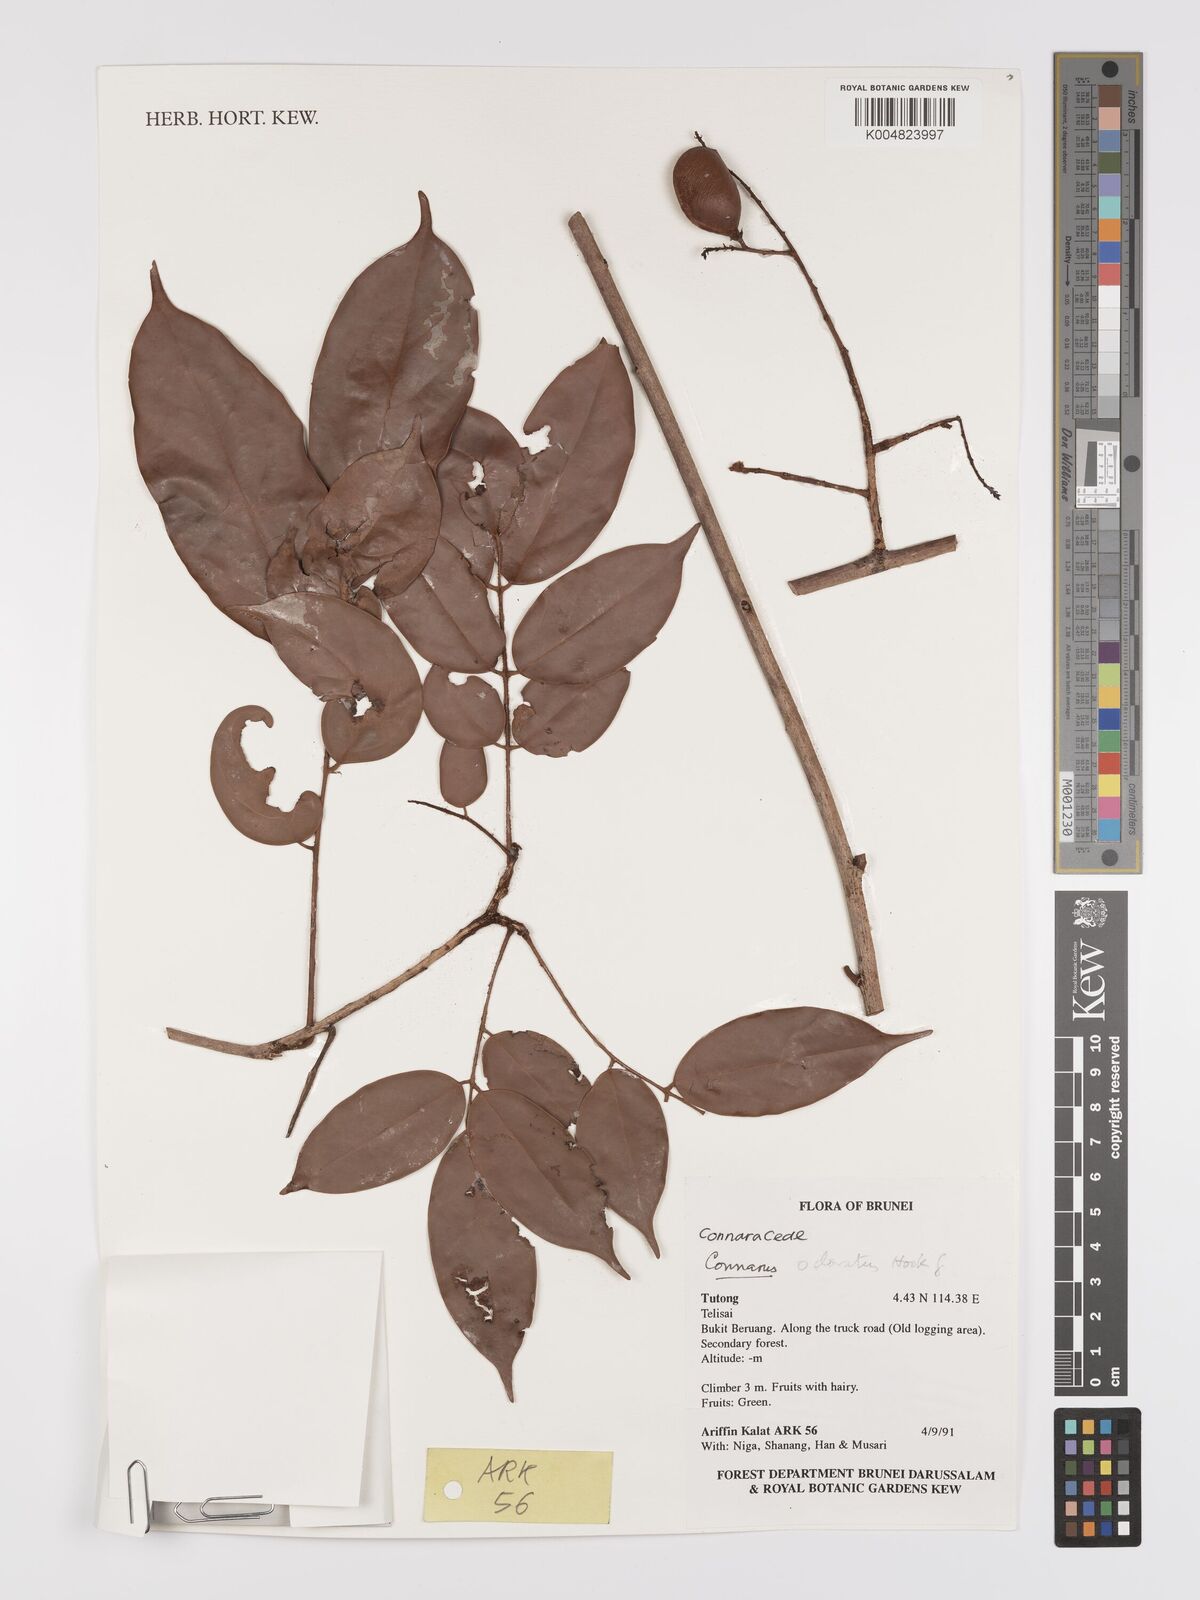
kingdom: Plantae
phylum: Tracheophyta
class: Magnoliopsida
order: Oxalidales
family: Connaraceae
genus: Connarus
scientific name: Connarus odoratus
